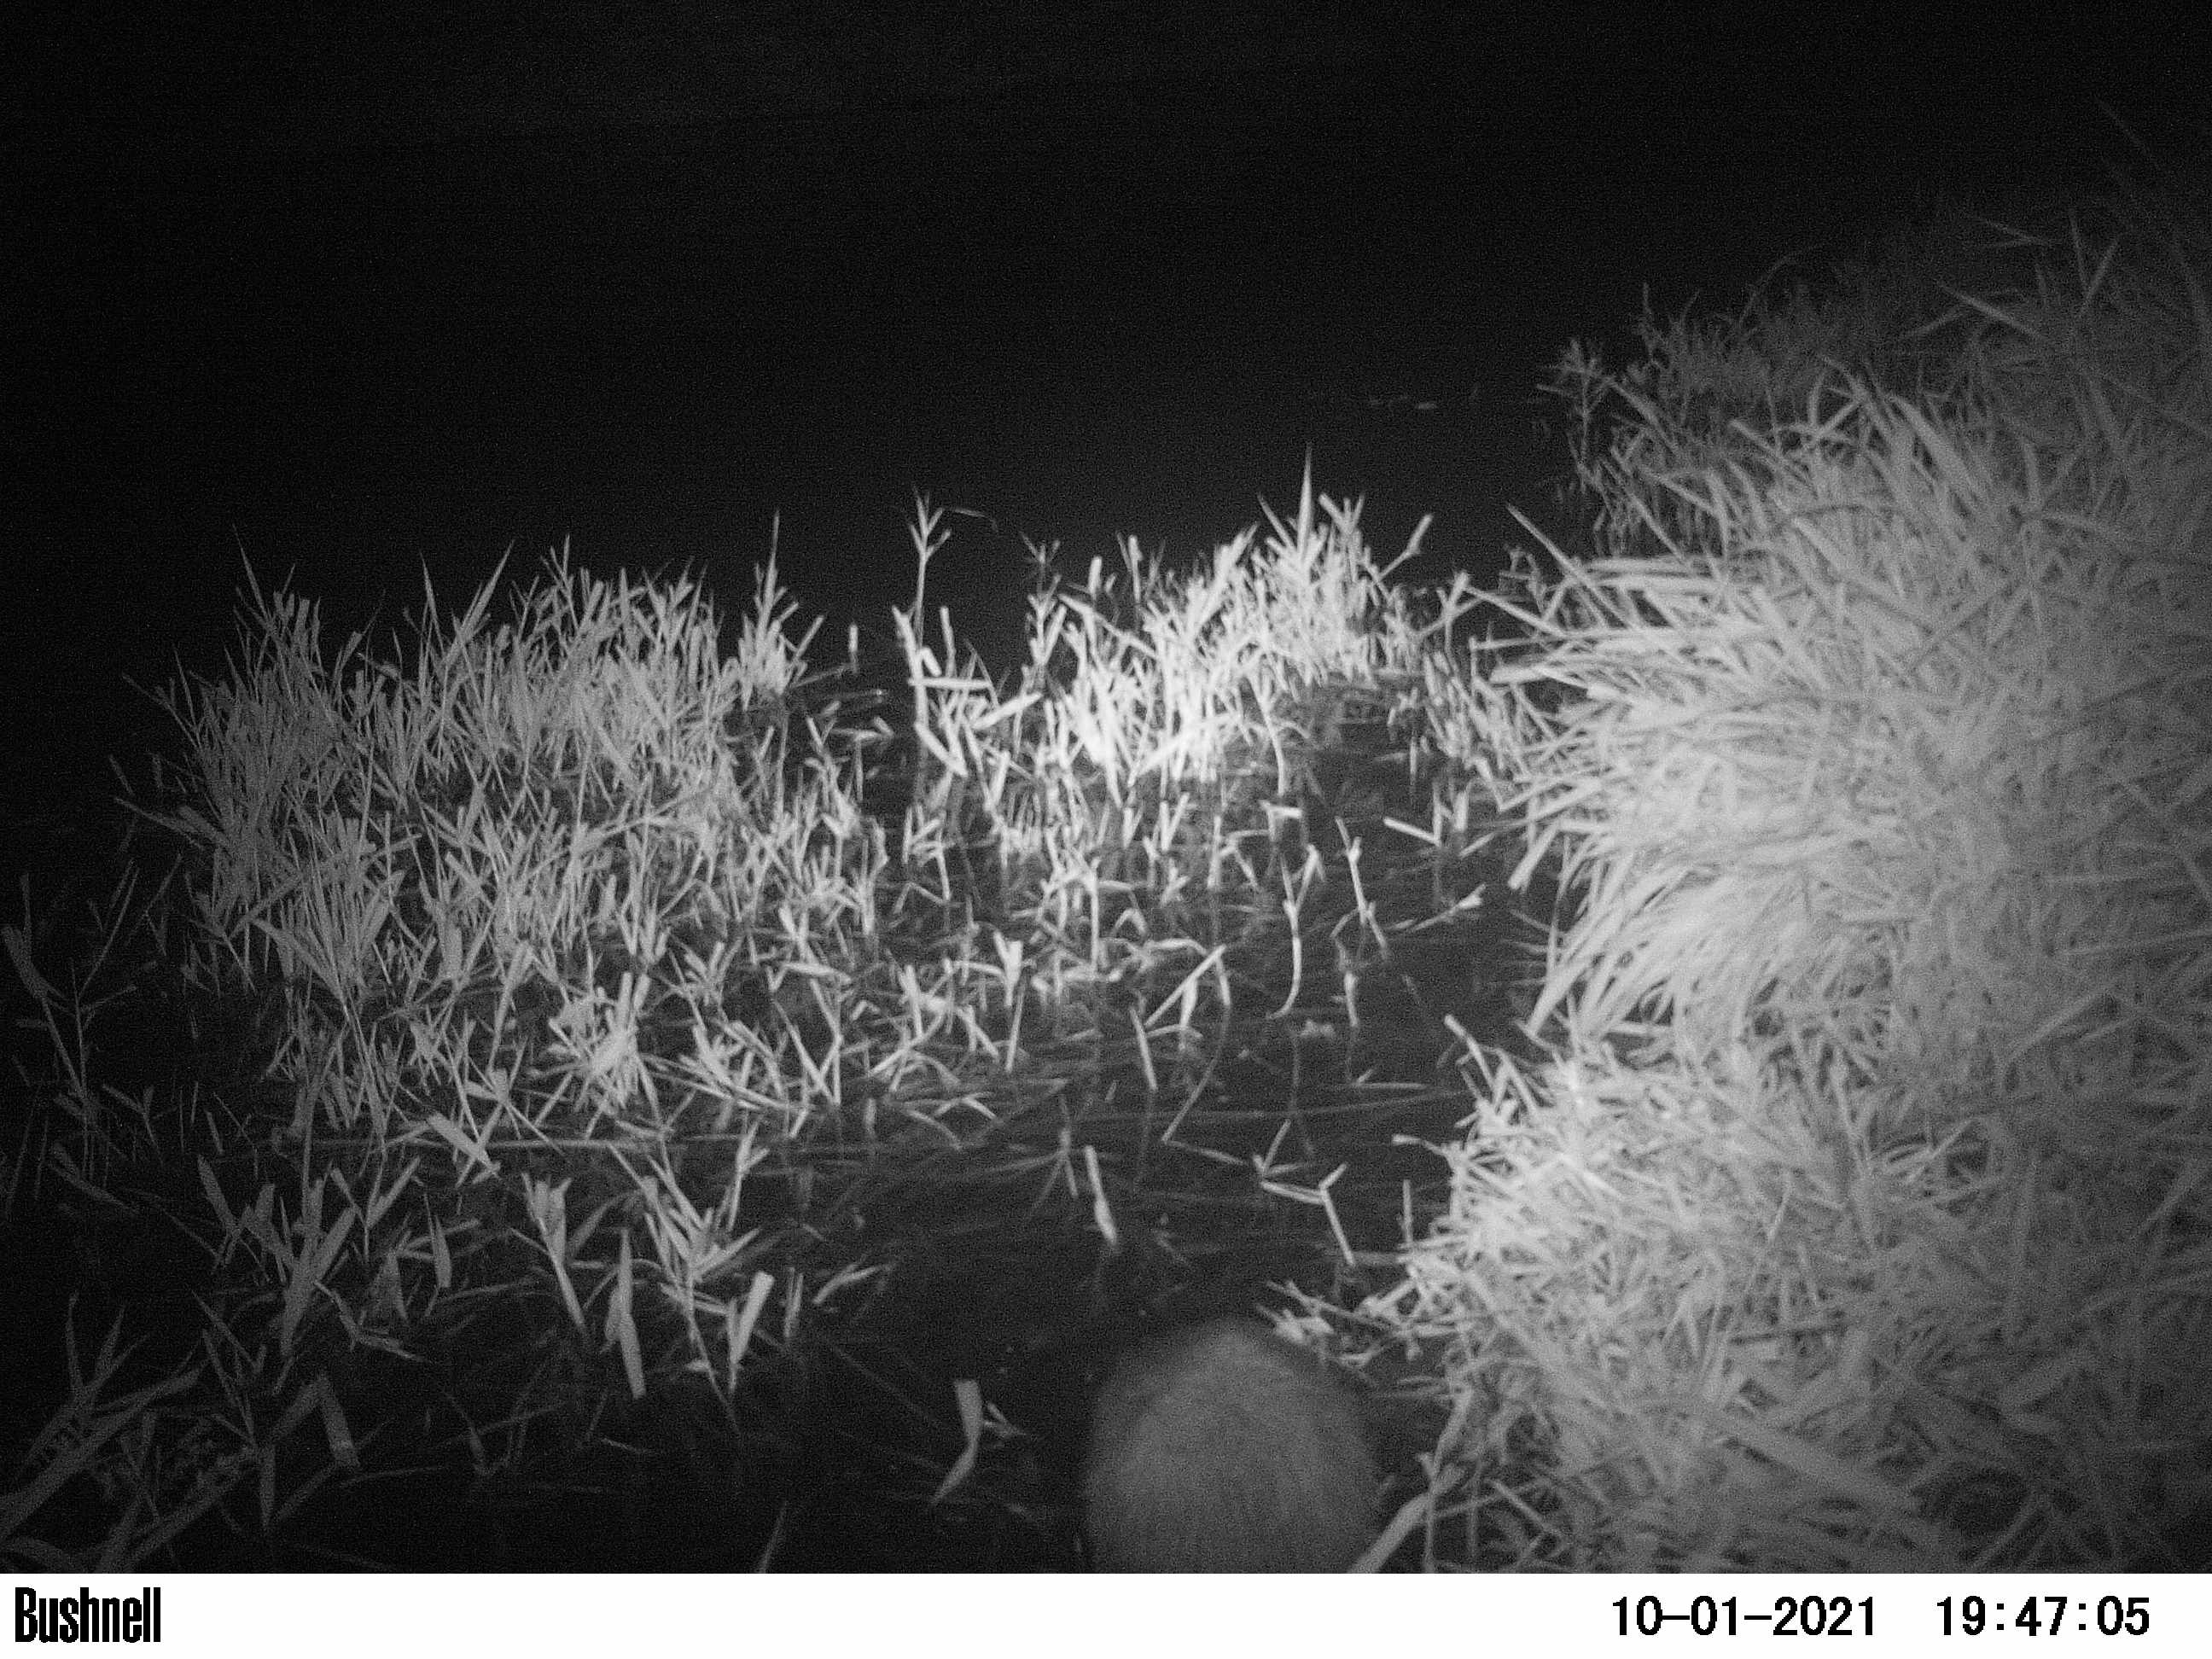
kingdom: Animalia
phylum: Chordata
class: Mammalia
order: Rodentia
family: Myocastoridae
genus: Myocastor
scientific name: Myocastor coypus
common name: Coypu
